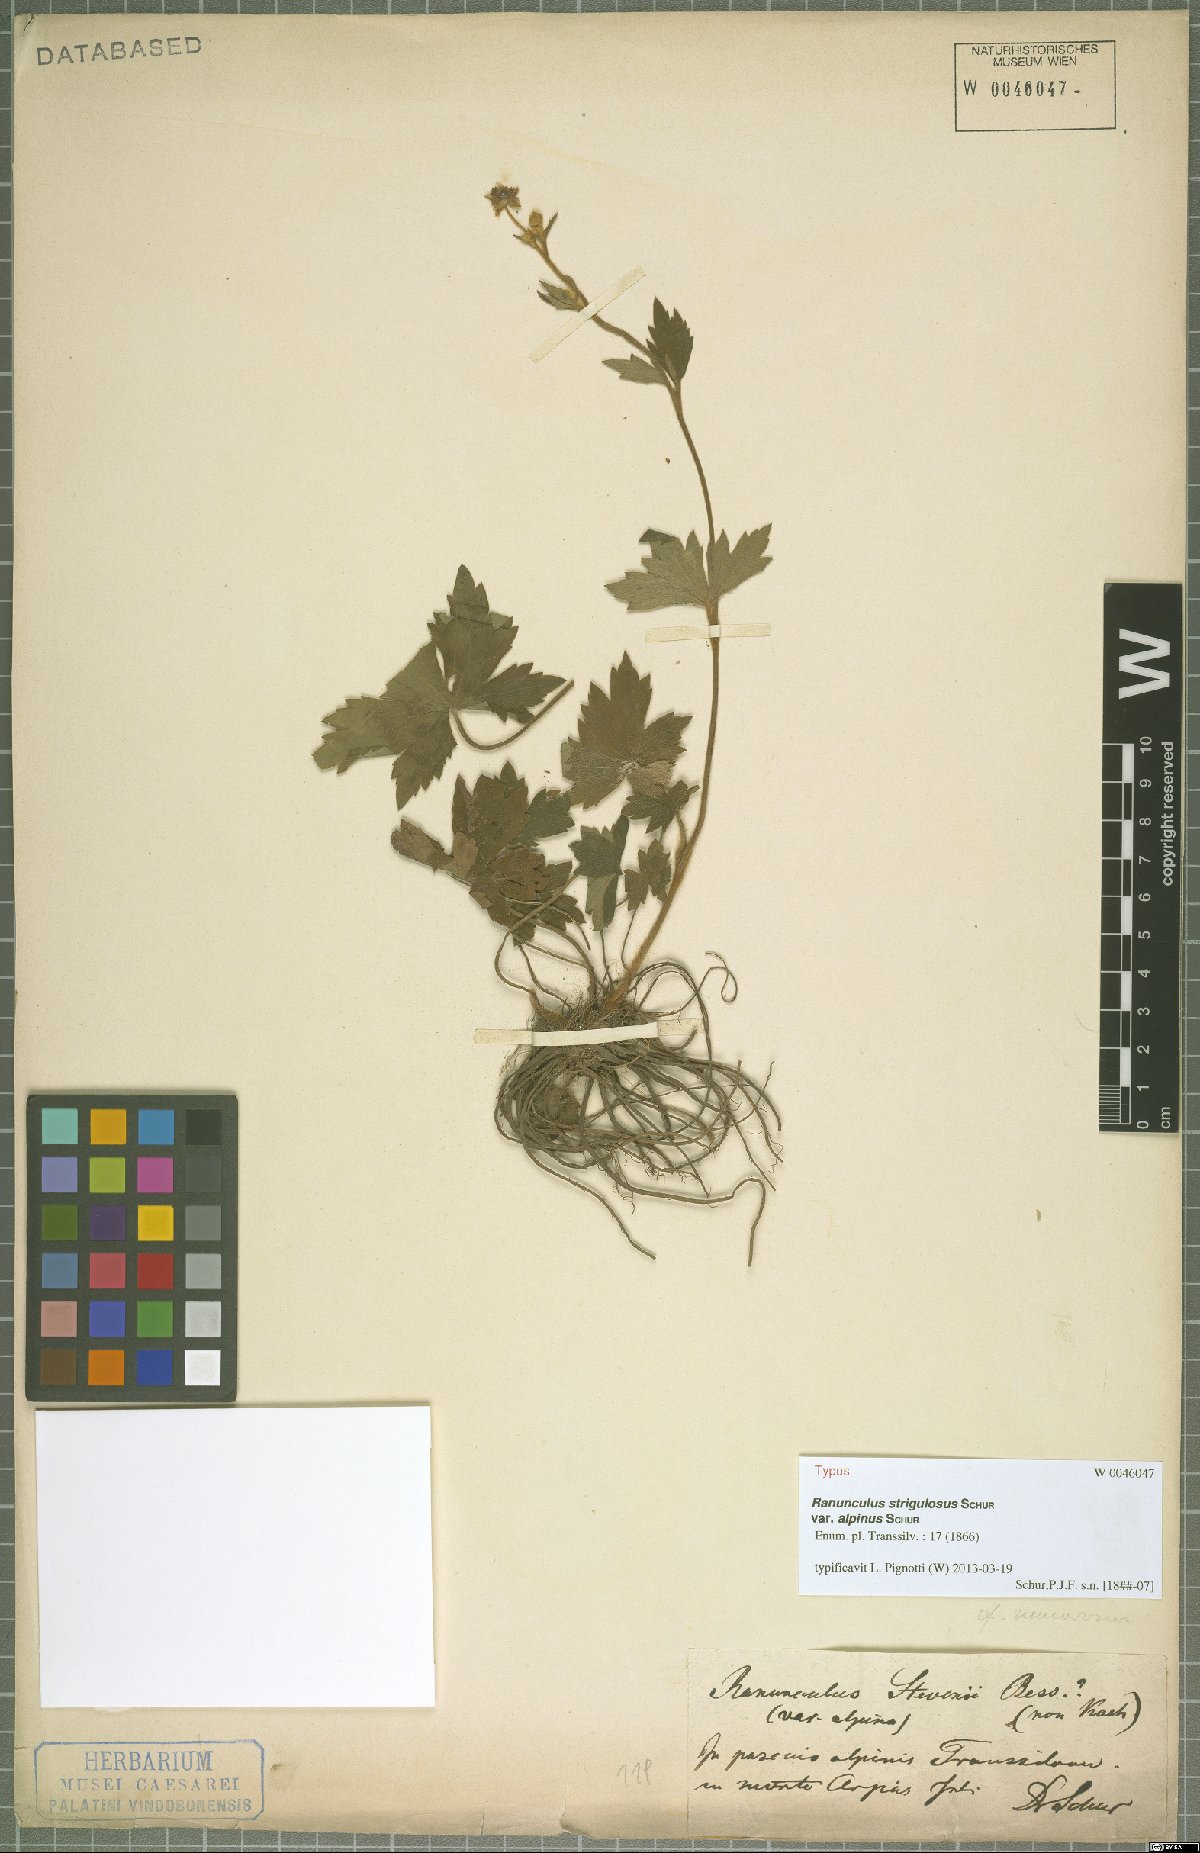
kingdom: Plantae
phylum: Tracheophyta
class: Magnoliopsida
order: Ranunculales
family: Ranunculaceae
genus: Ranunculus
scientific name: Ranunculus propinquus
